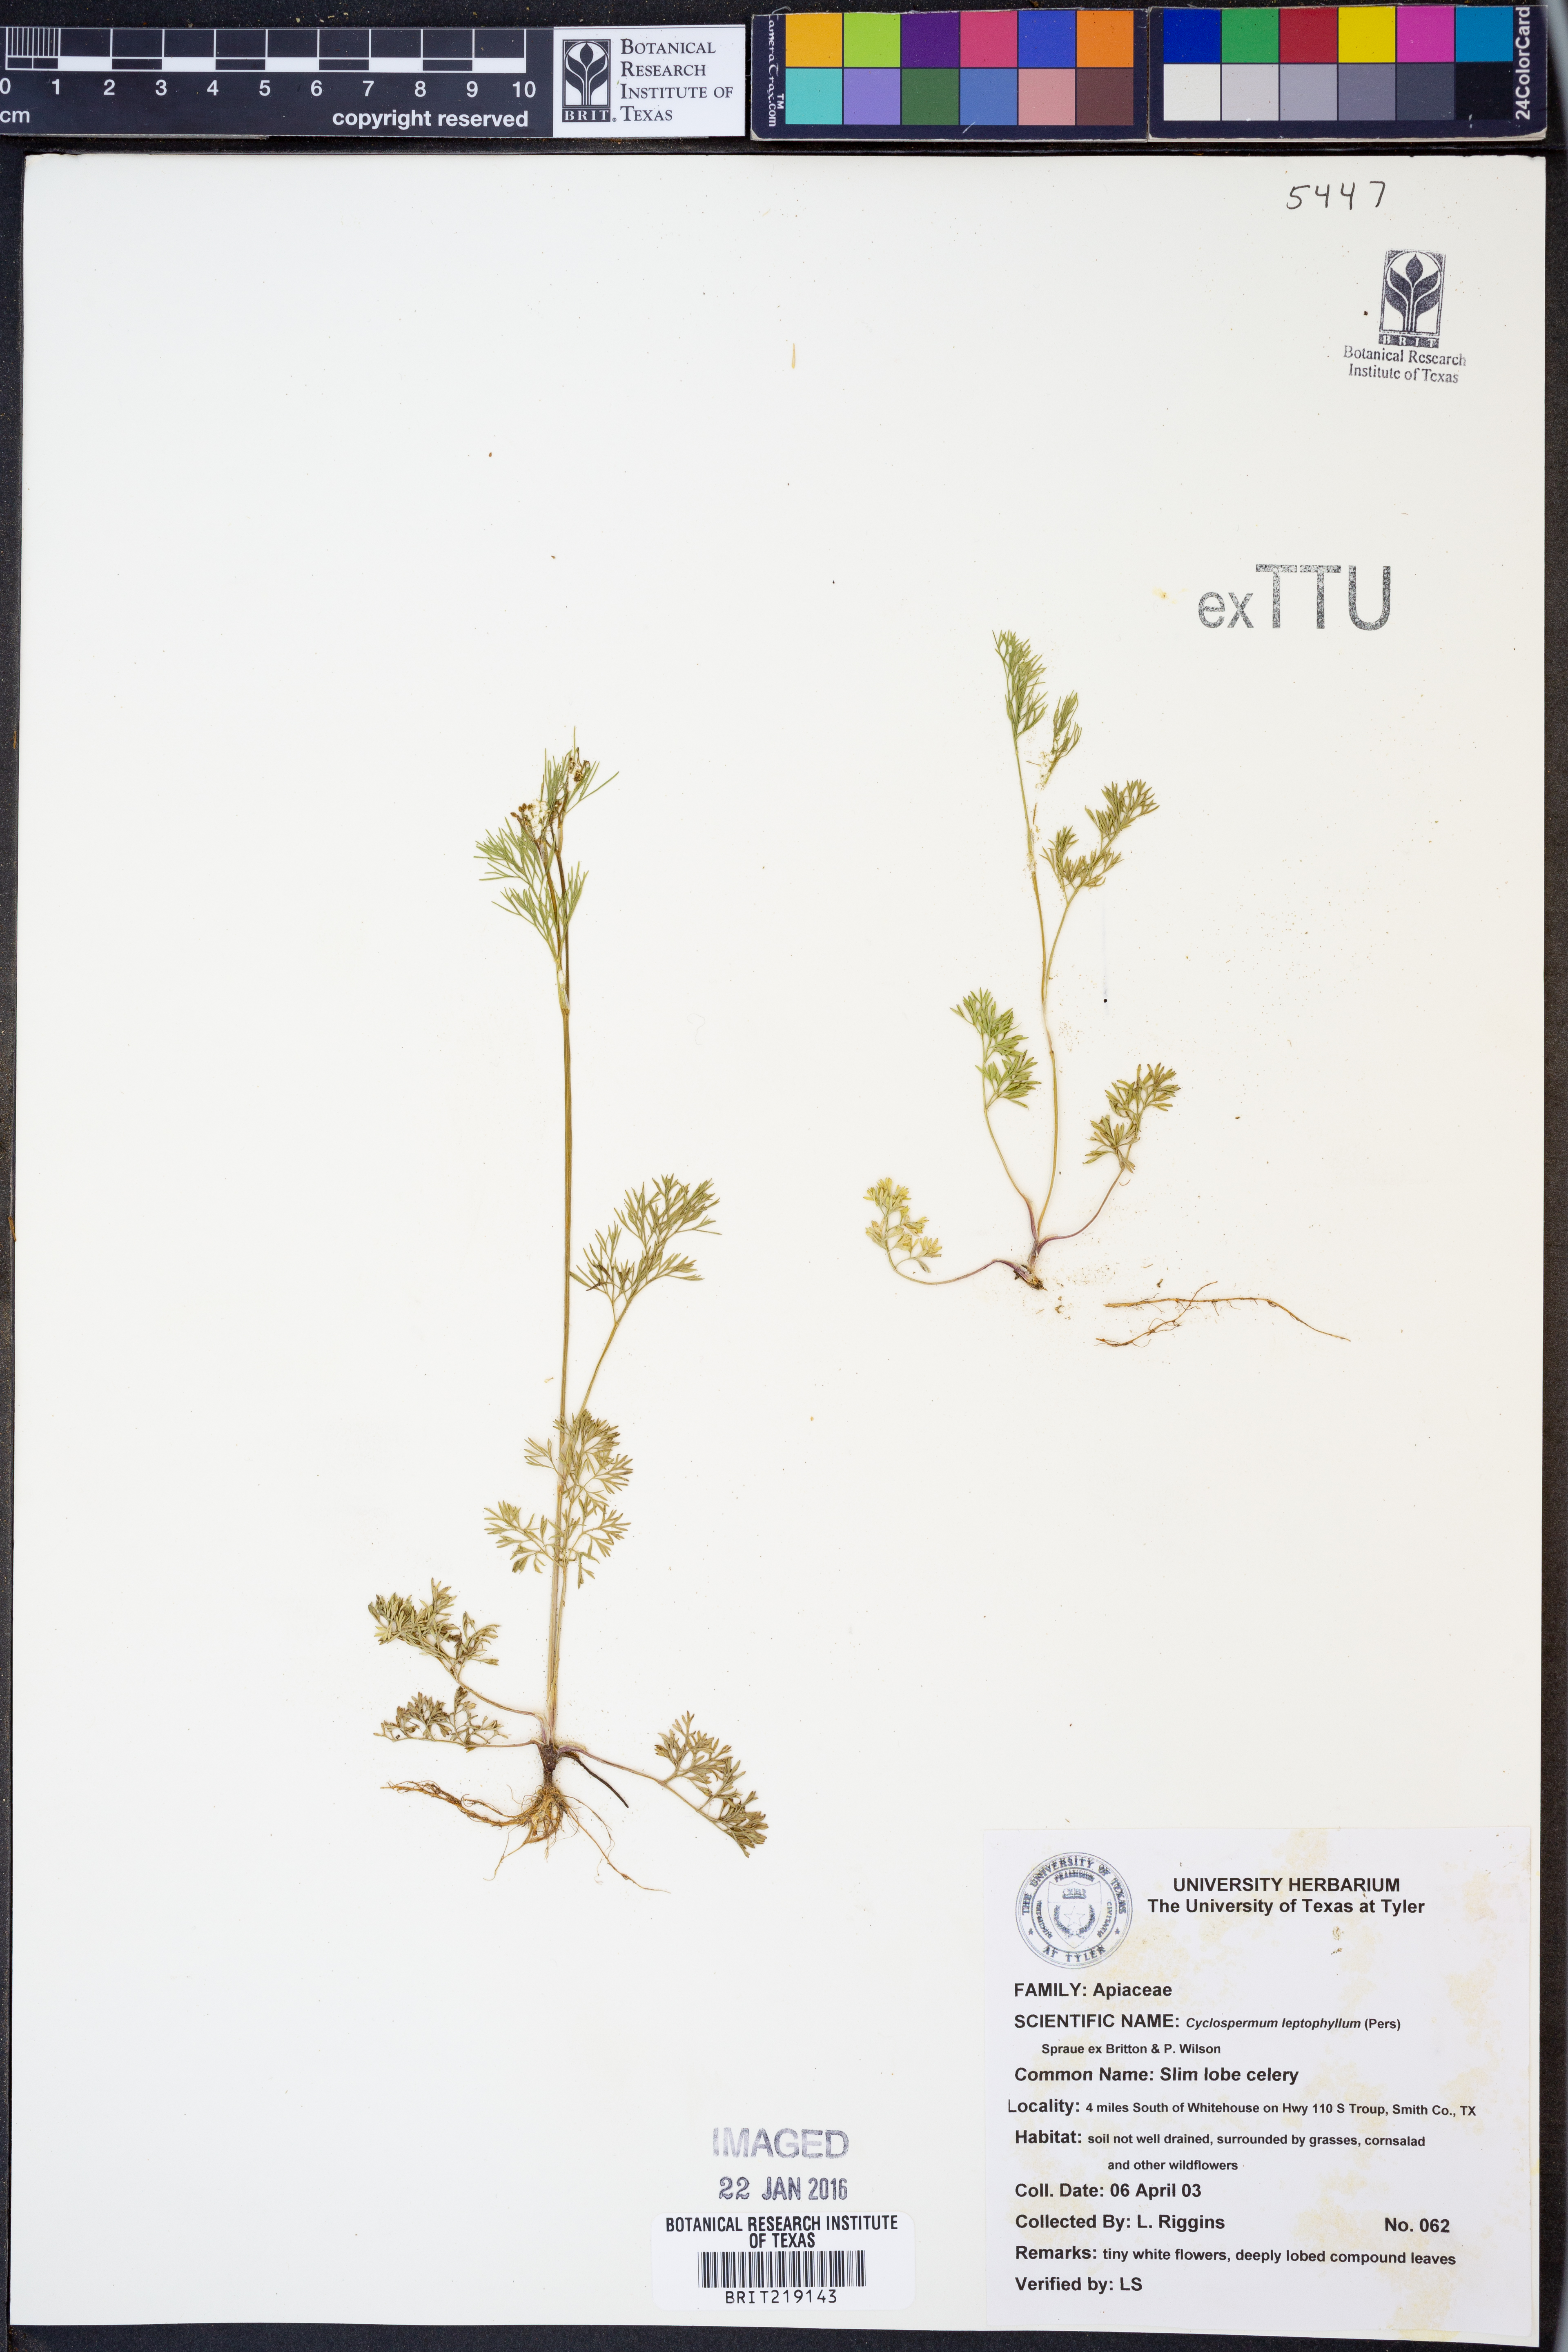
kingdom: Plantae
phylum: Tracheophyta
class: Magnoliopsida
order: Apiales
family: Apiaceae
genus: Cyclospermum
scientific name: Cyclospermum leptophyllum
